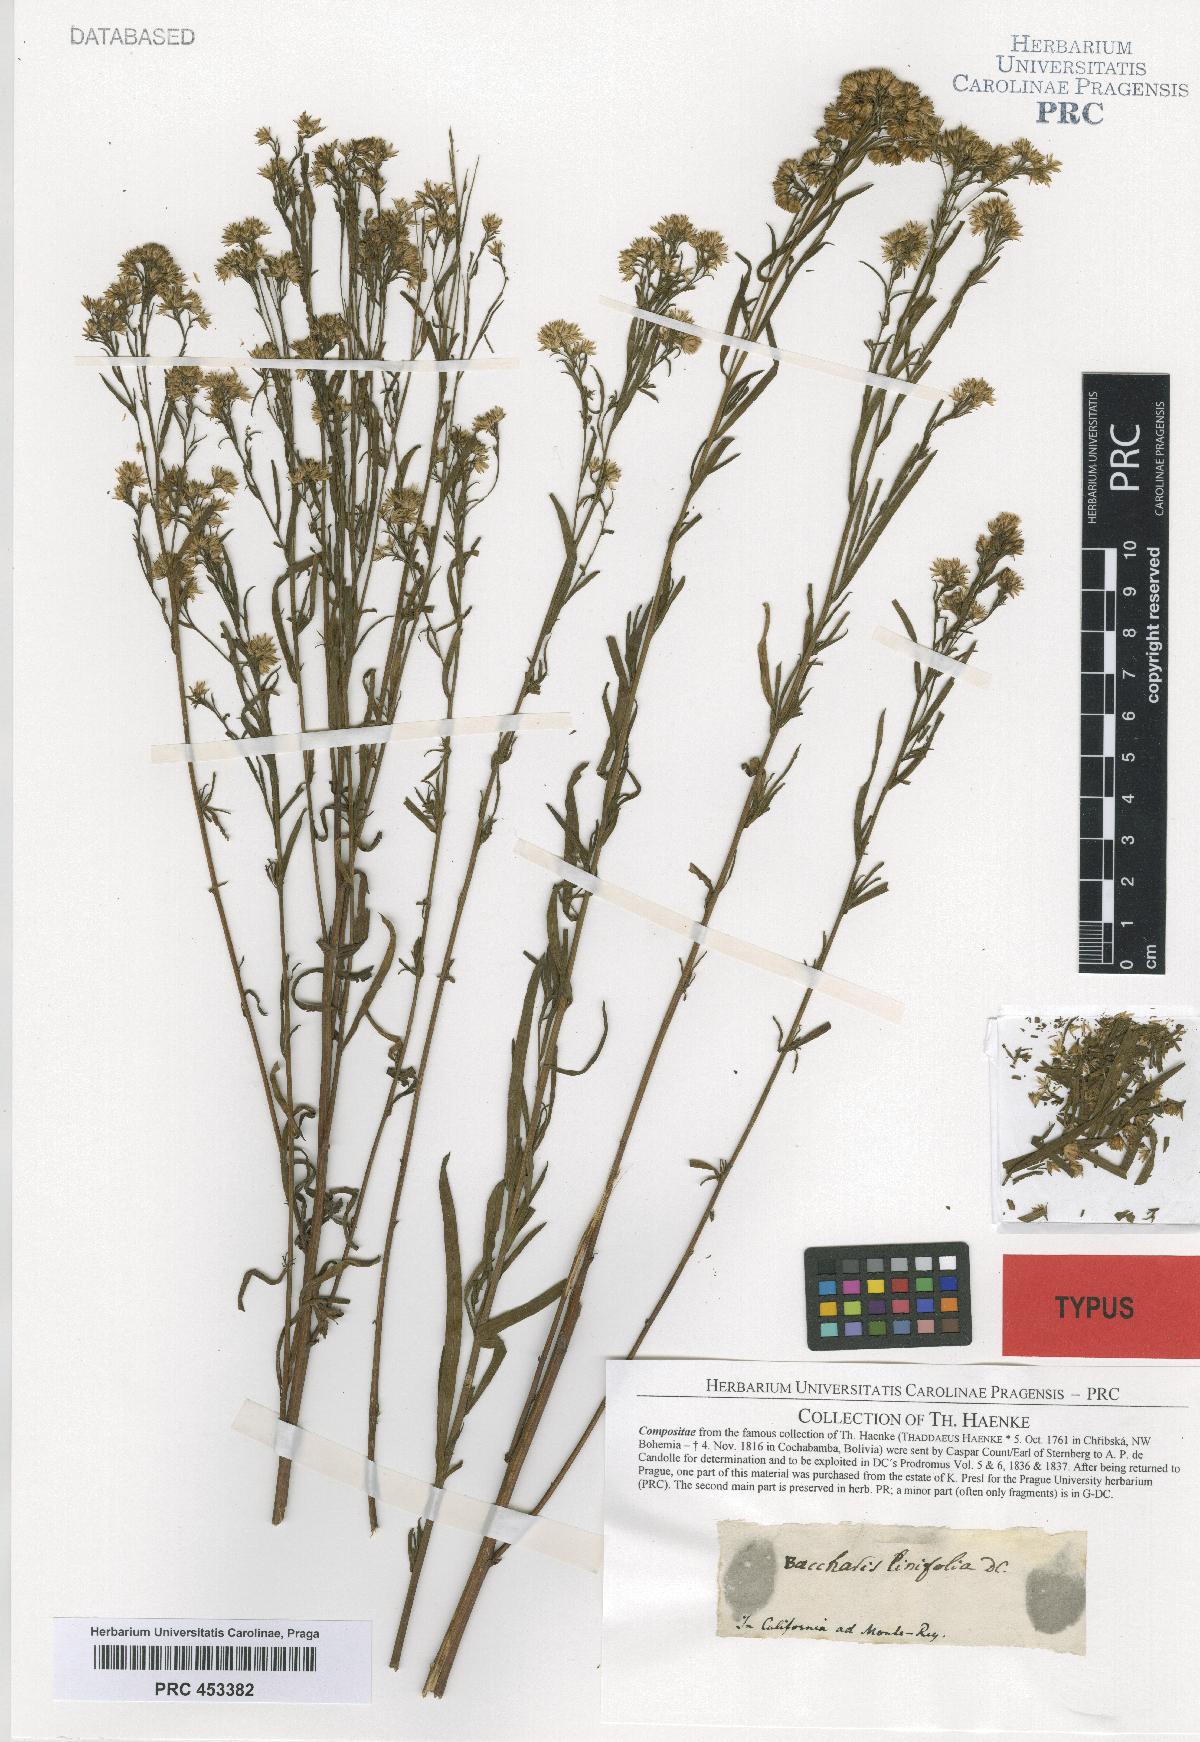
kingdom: Plantae
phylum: Tracheophyta
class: Magnoliopsida
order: Asterales
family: Asteraceae
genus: Baccharis
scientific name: Baccharis salicifolia
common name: Sticky baccharis
